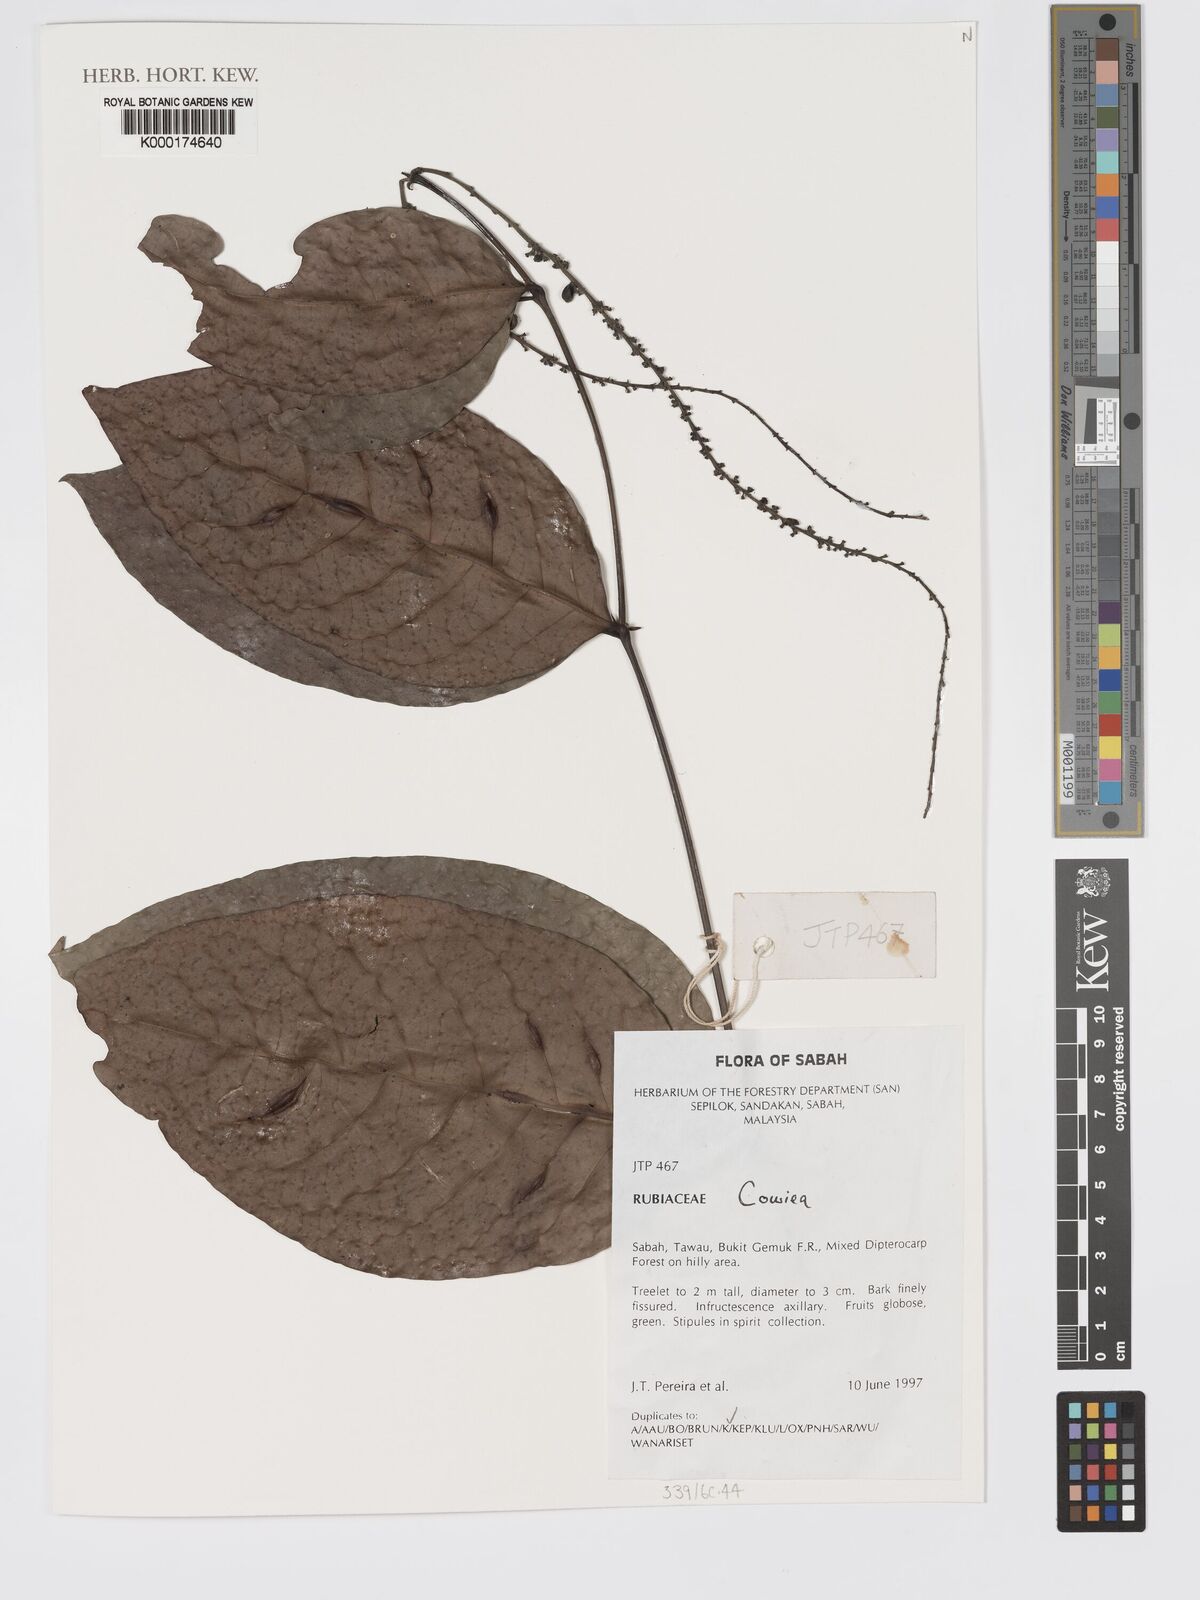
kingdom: Plantae
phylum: Tracheophyta
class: Magnoliopsida
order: Gentianales
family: Rubiaceae
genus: Cowiea
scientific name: Cowiea
